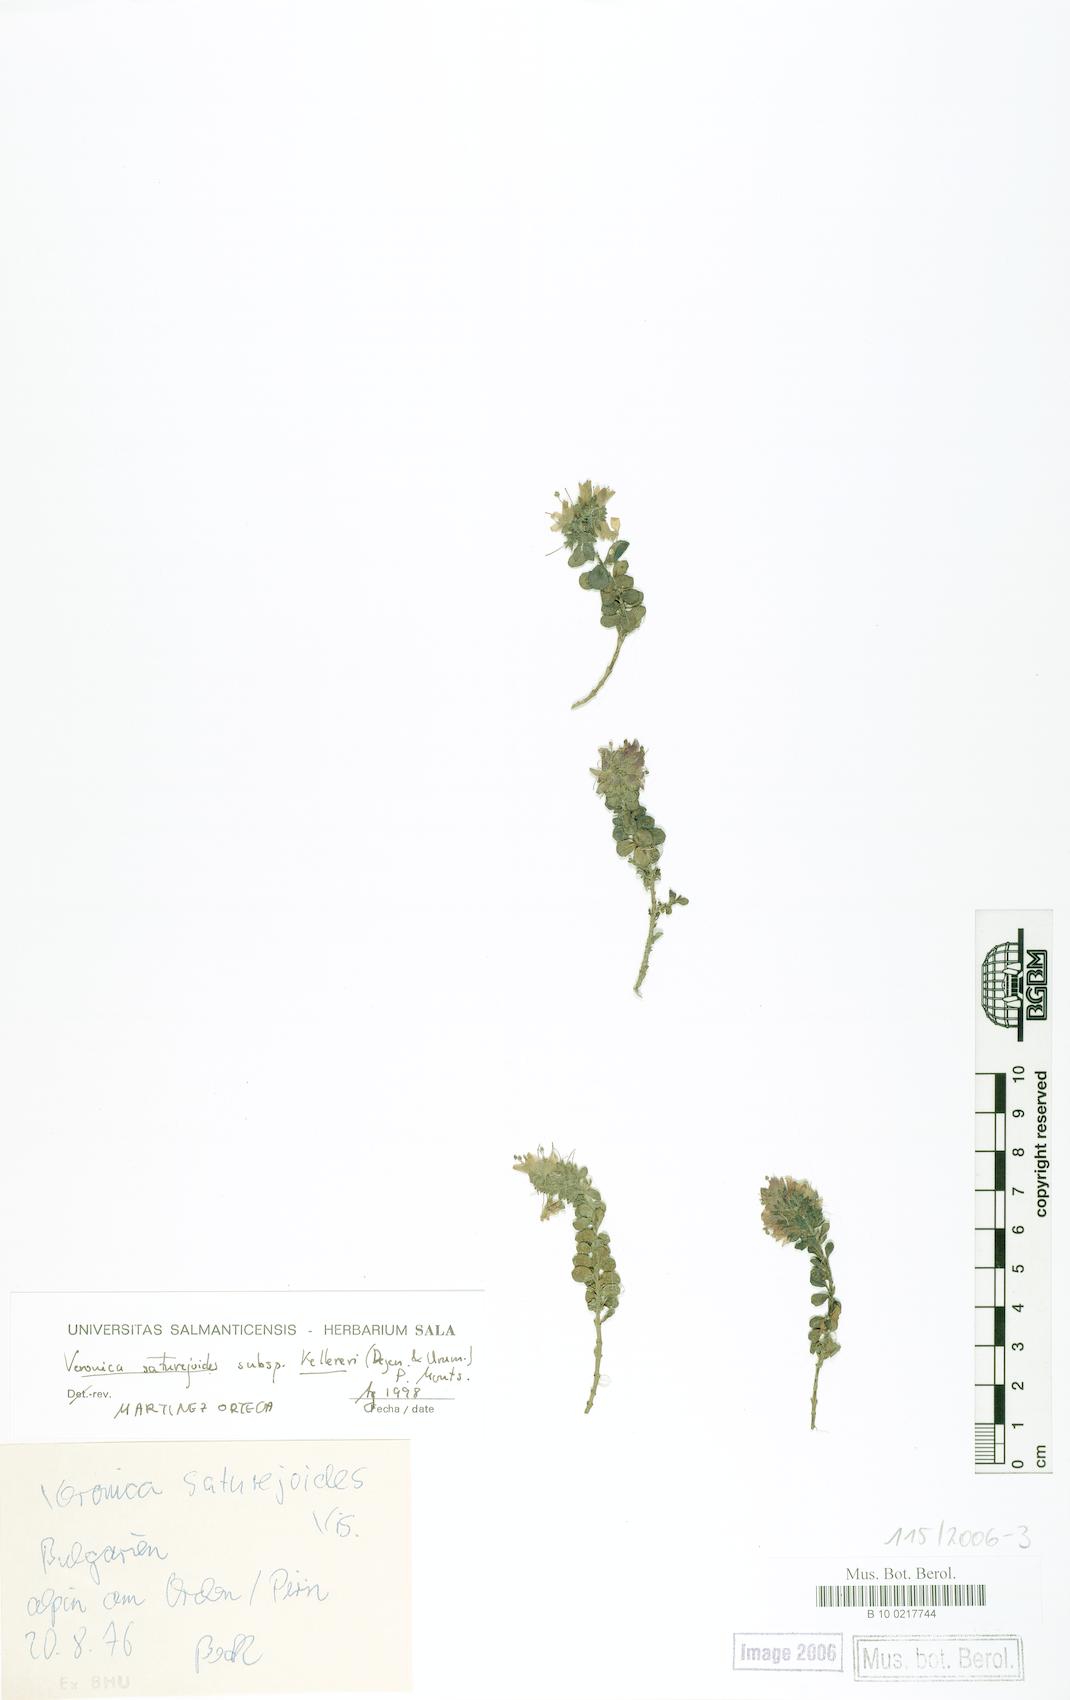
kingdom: Plantae
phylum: Tracheophyta
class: Magnoliopsida
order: Lamiales
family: Plantaginaceae
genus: Veronica
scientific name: Veronica saturejoides
